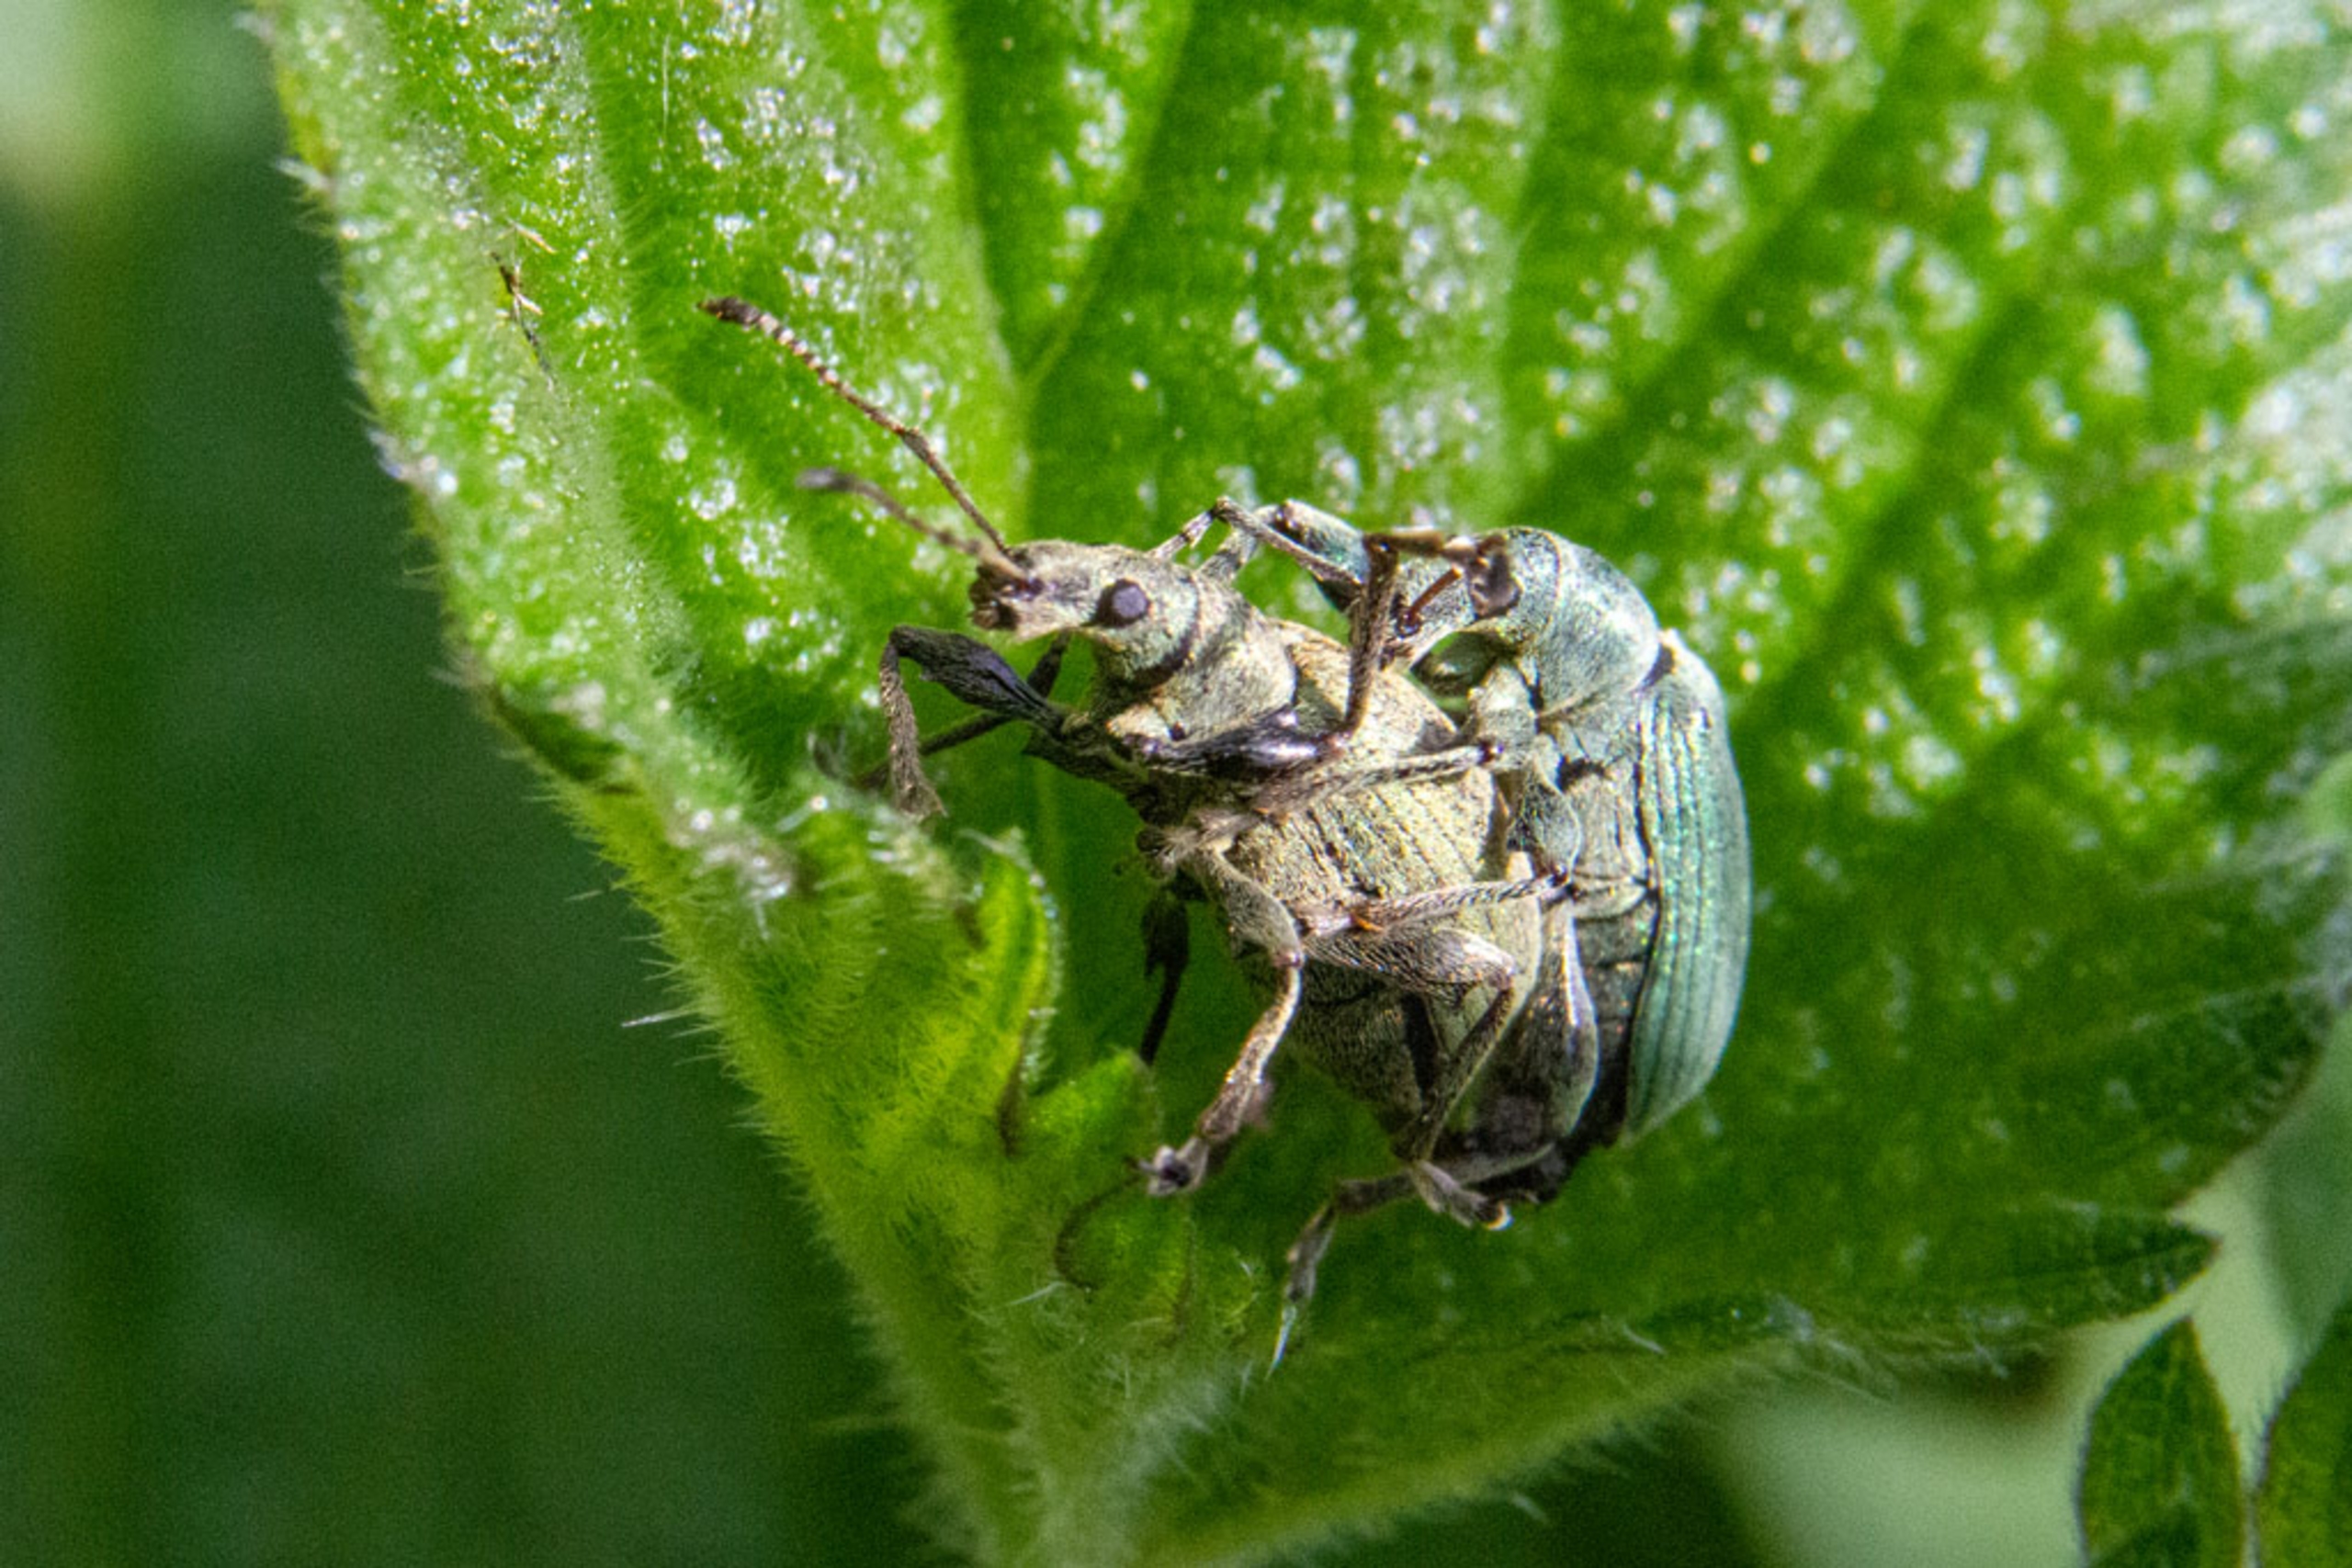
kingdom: Animalia
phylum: Arthropoda
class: Insecta
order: Coleoptera
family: Curculionidae
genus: Phyllobius
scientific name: Phyllobius pomaceus
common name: Nældesnudebille
